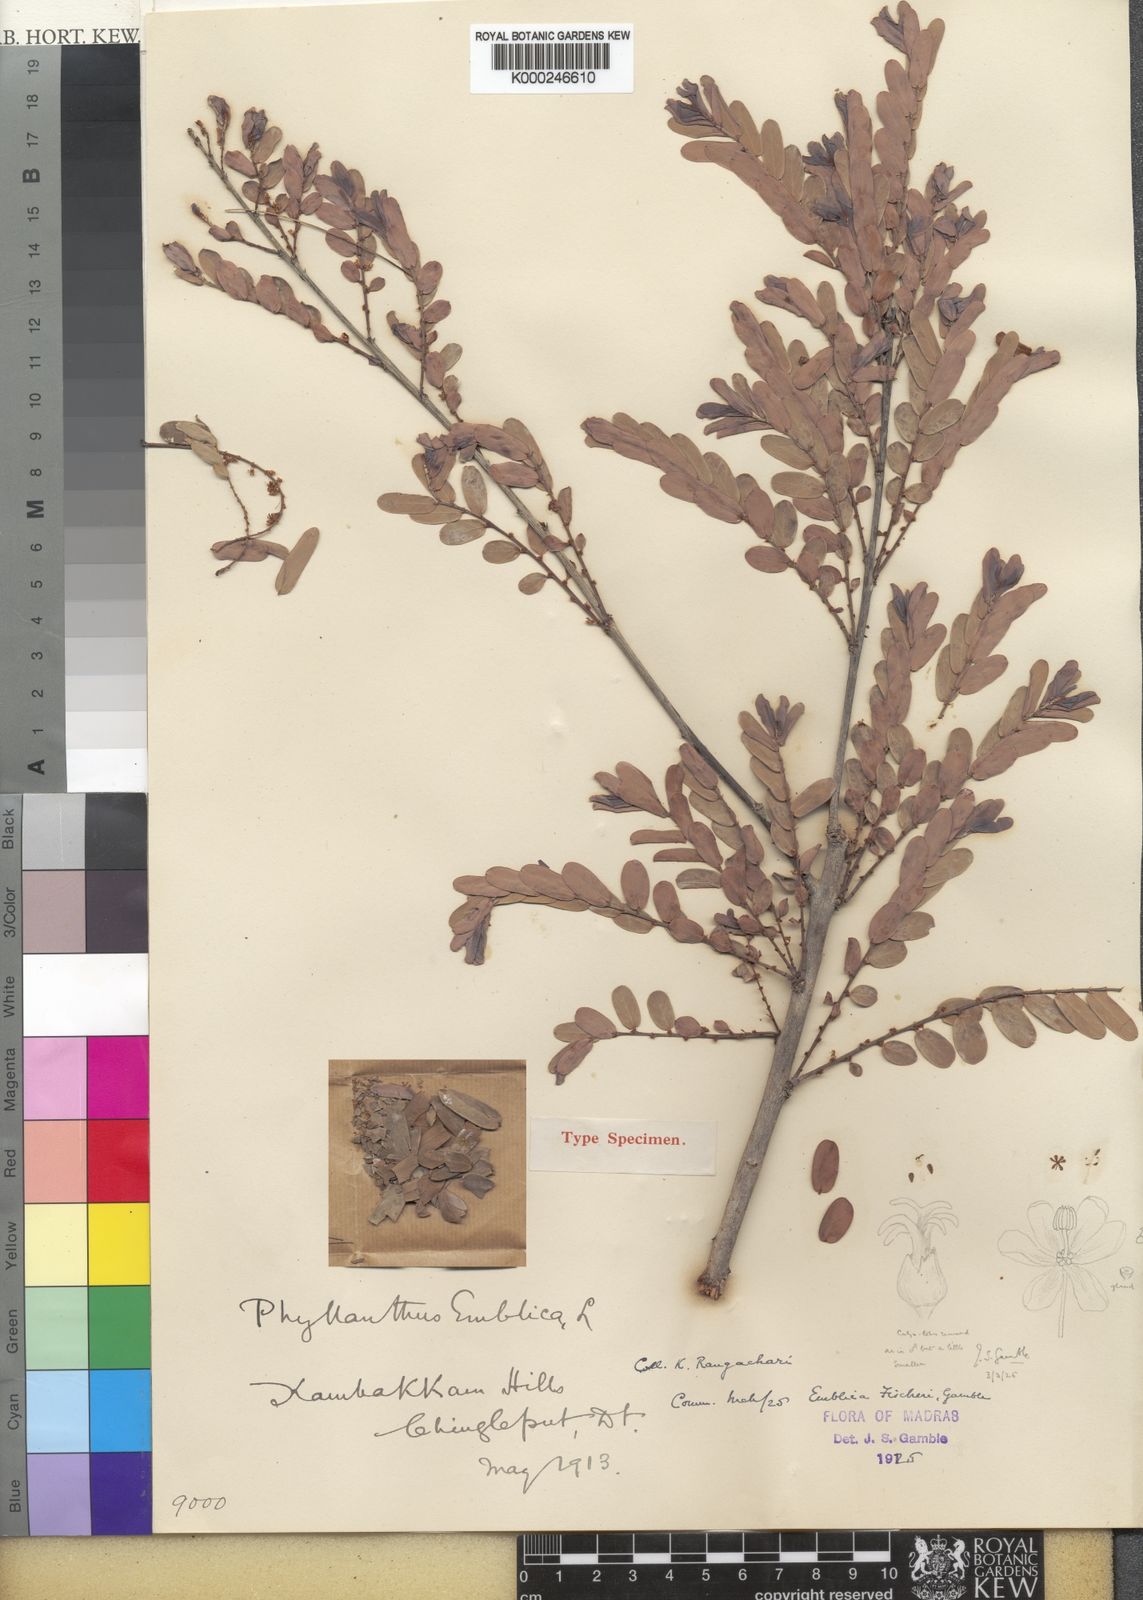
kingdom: Plantae
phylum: Tracheophyta
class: Magnoliopsida
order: Malpighiales
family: Phyllanthaceae
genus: Phyllanthus
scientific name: Phyllanthus indofischeri
